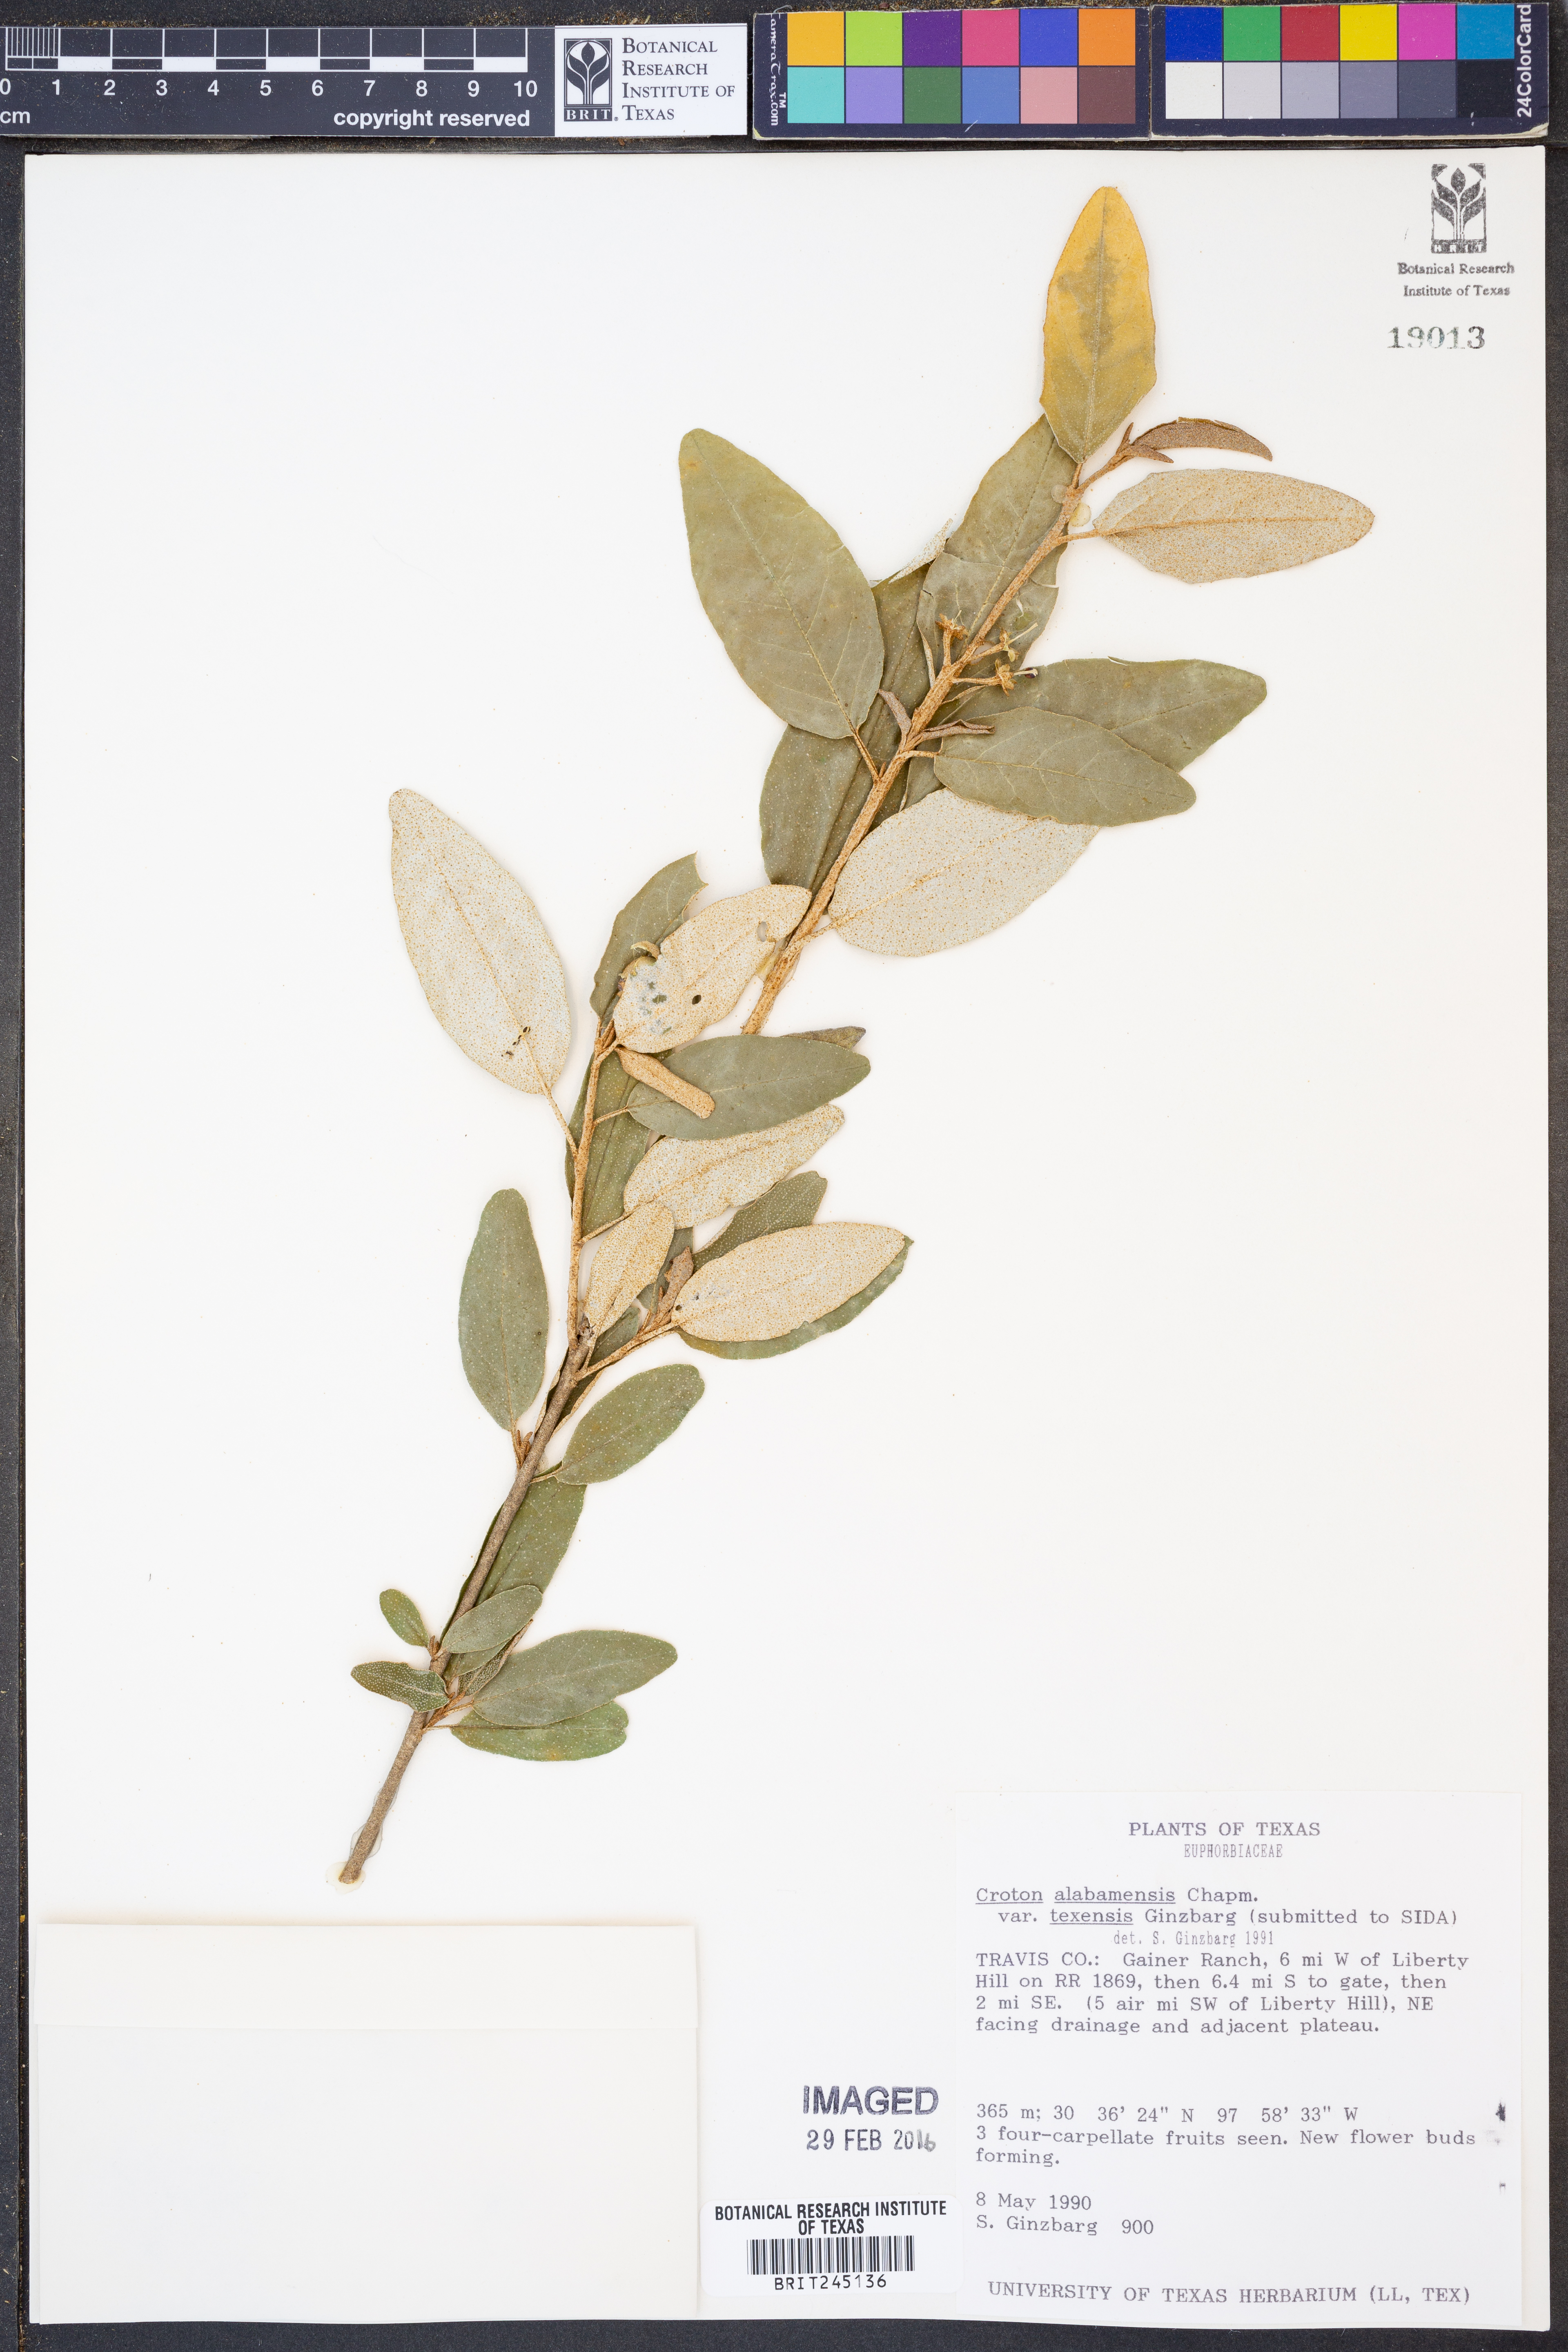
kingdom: Plantae
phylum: Tracheophyta
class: Magnoliopsida
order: Malpighiales
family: Euphorbiaceae
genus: Croton
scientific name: Croton alabamensis
